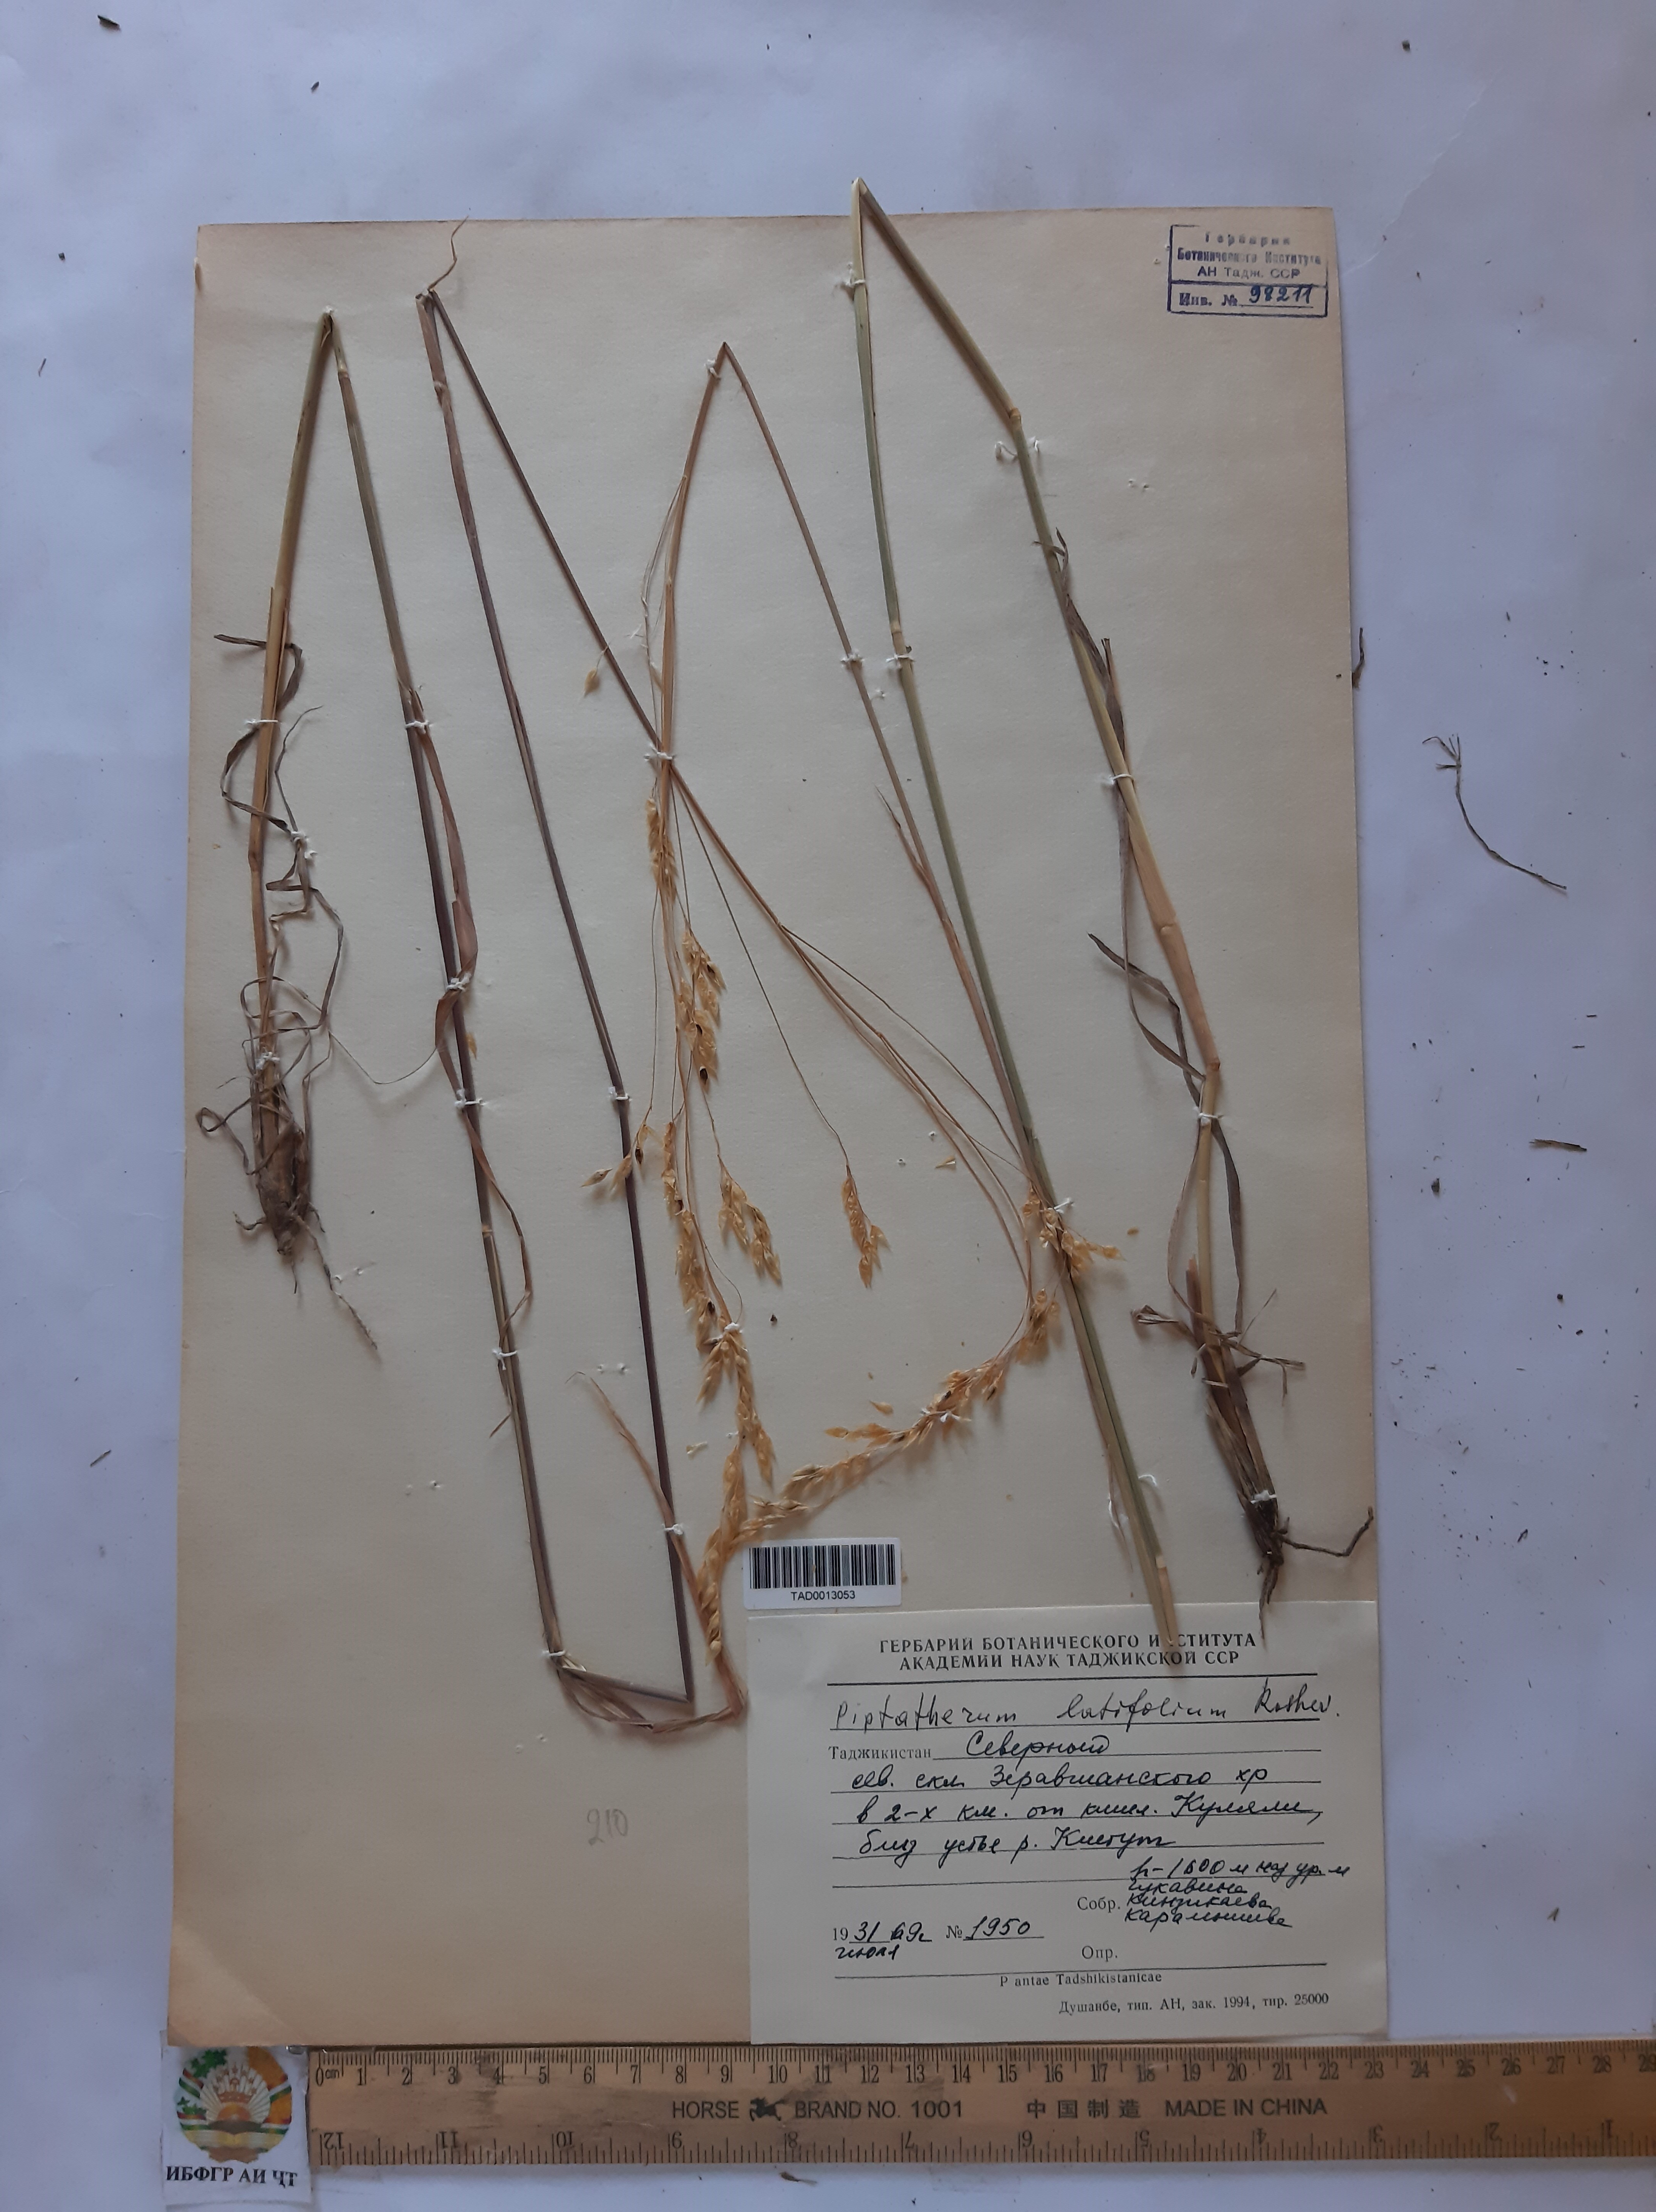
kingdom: Plantae
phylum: Tracheophyta
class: Liliopsida
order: Poales
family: Poaceae
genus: Piptatherum
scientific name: Piptatherum laterale
